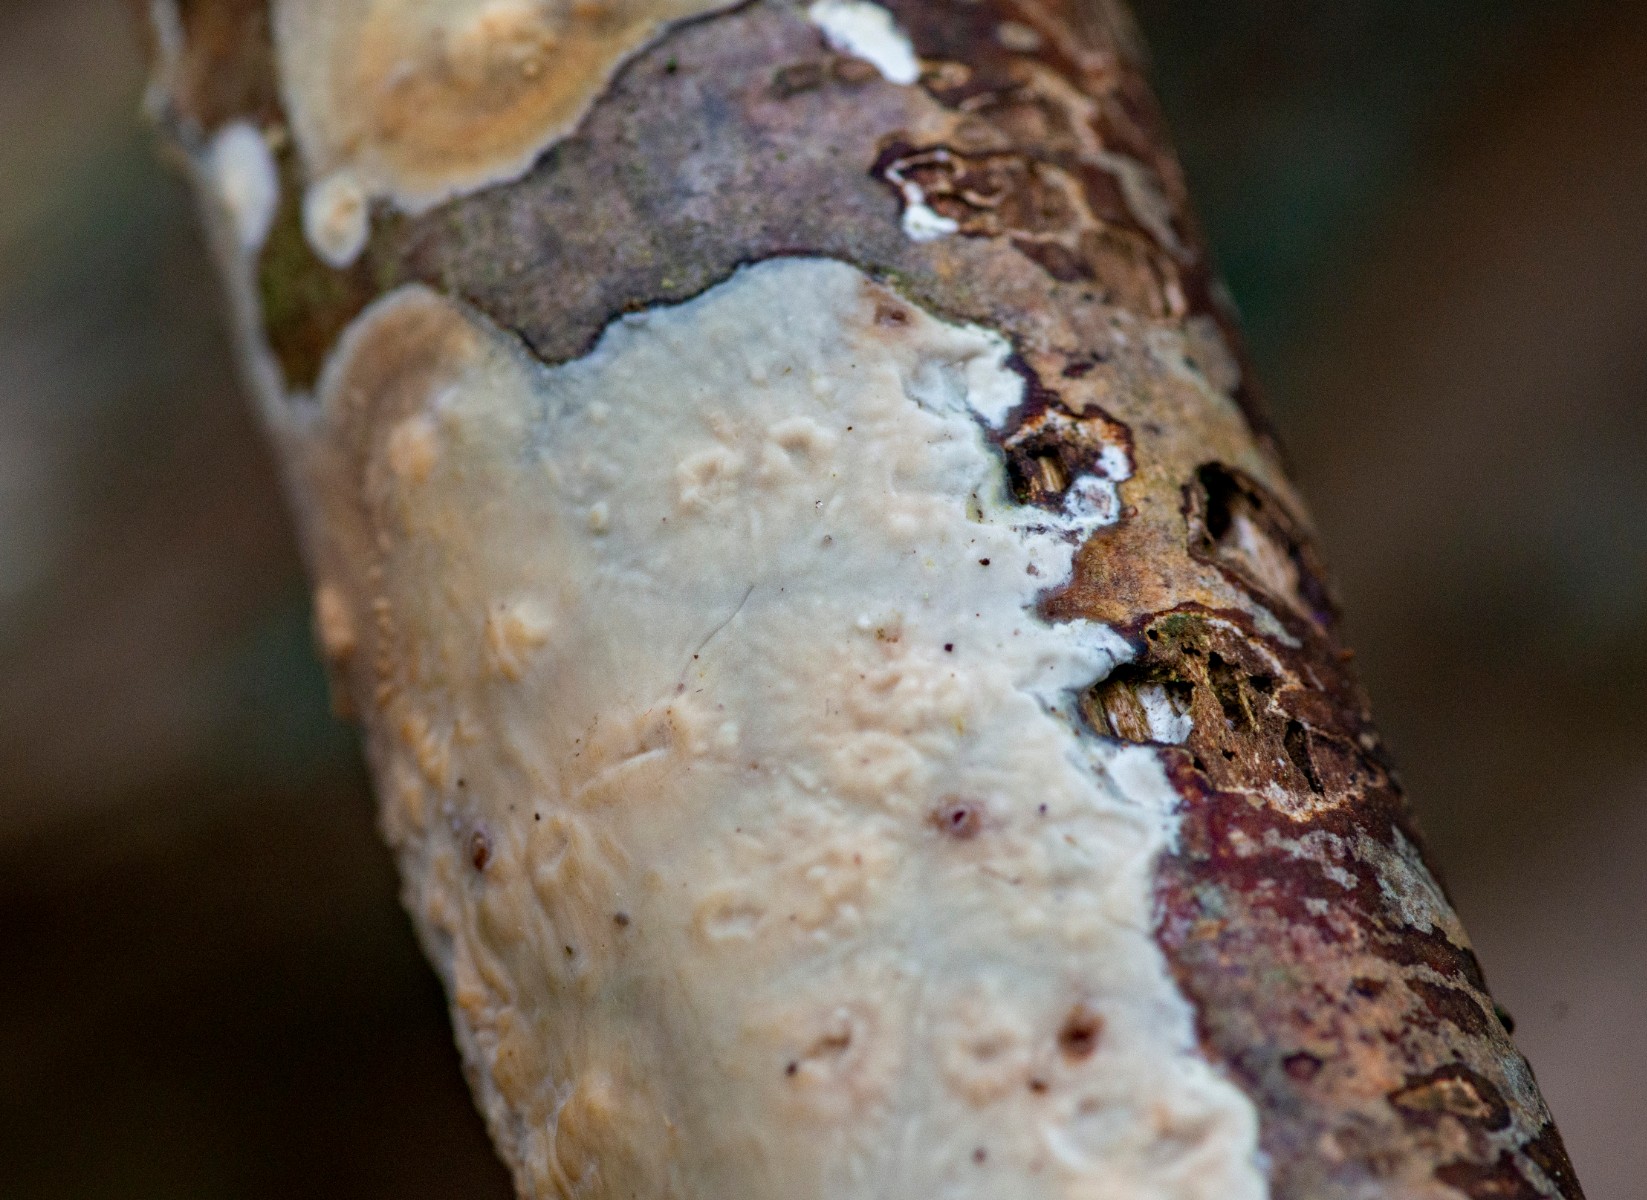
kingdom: Fungi
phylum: Basidiomycota
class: Agaricomycetes
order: Agaricales
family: Radulomycetaceae
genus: Radulomyces
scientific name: Radulomyces confluens
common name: glat naftalinskind
